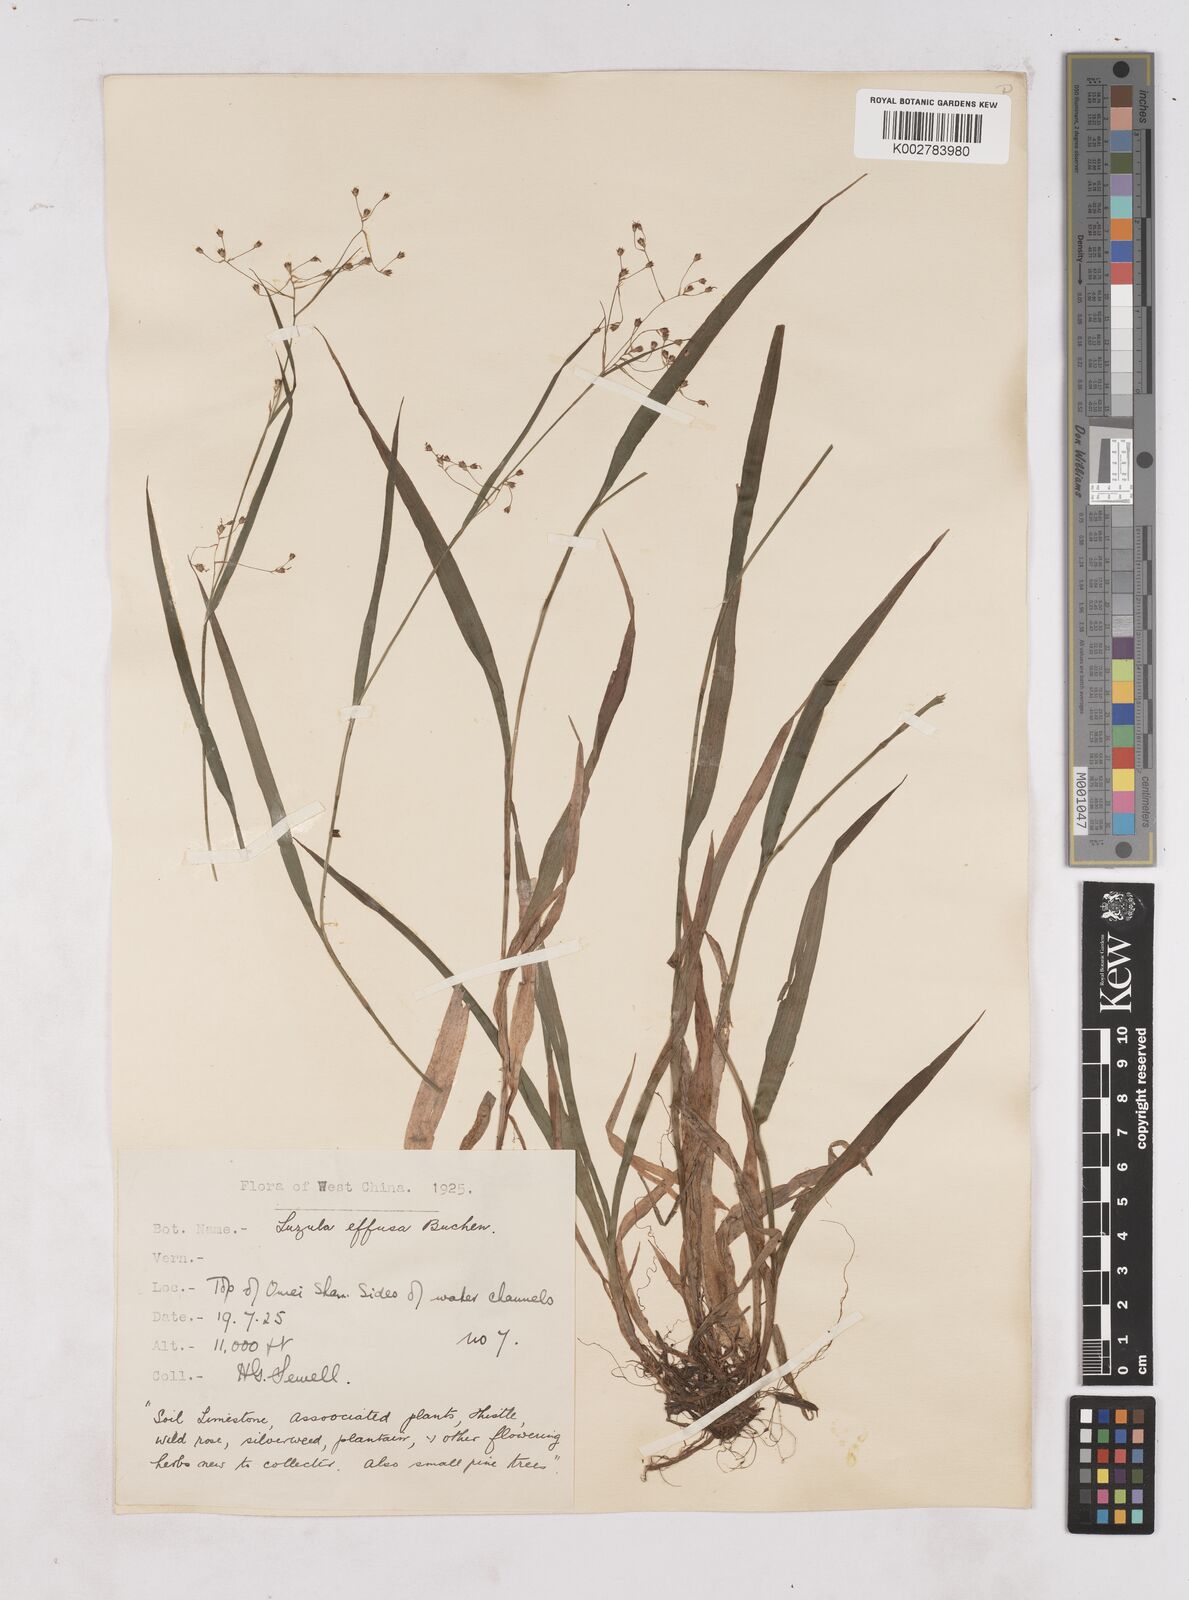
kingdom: Plantae
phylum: Tracheophyta
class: Liliopsida
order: Poales
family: Juncaceae
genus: Luzula
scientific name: Luzula effusa
